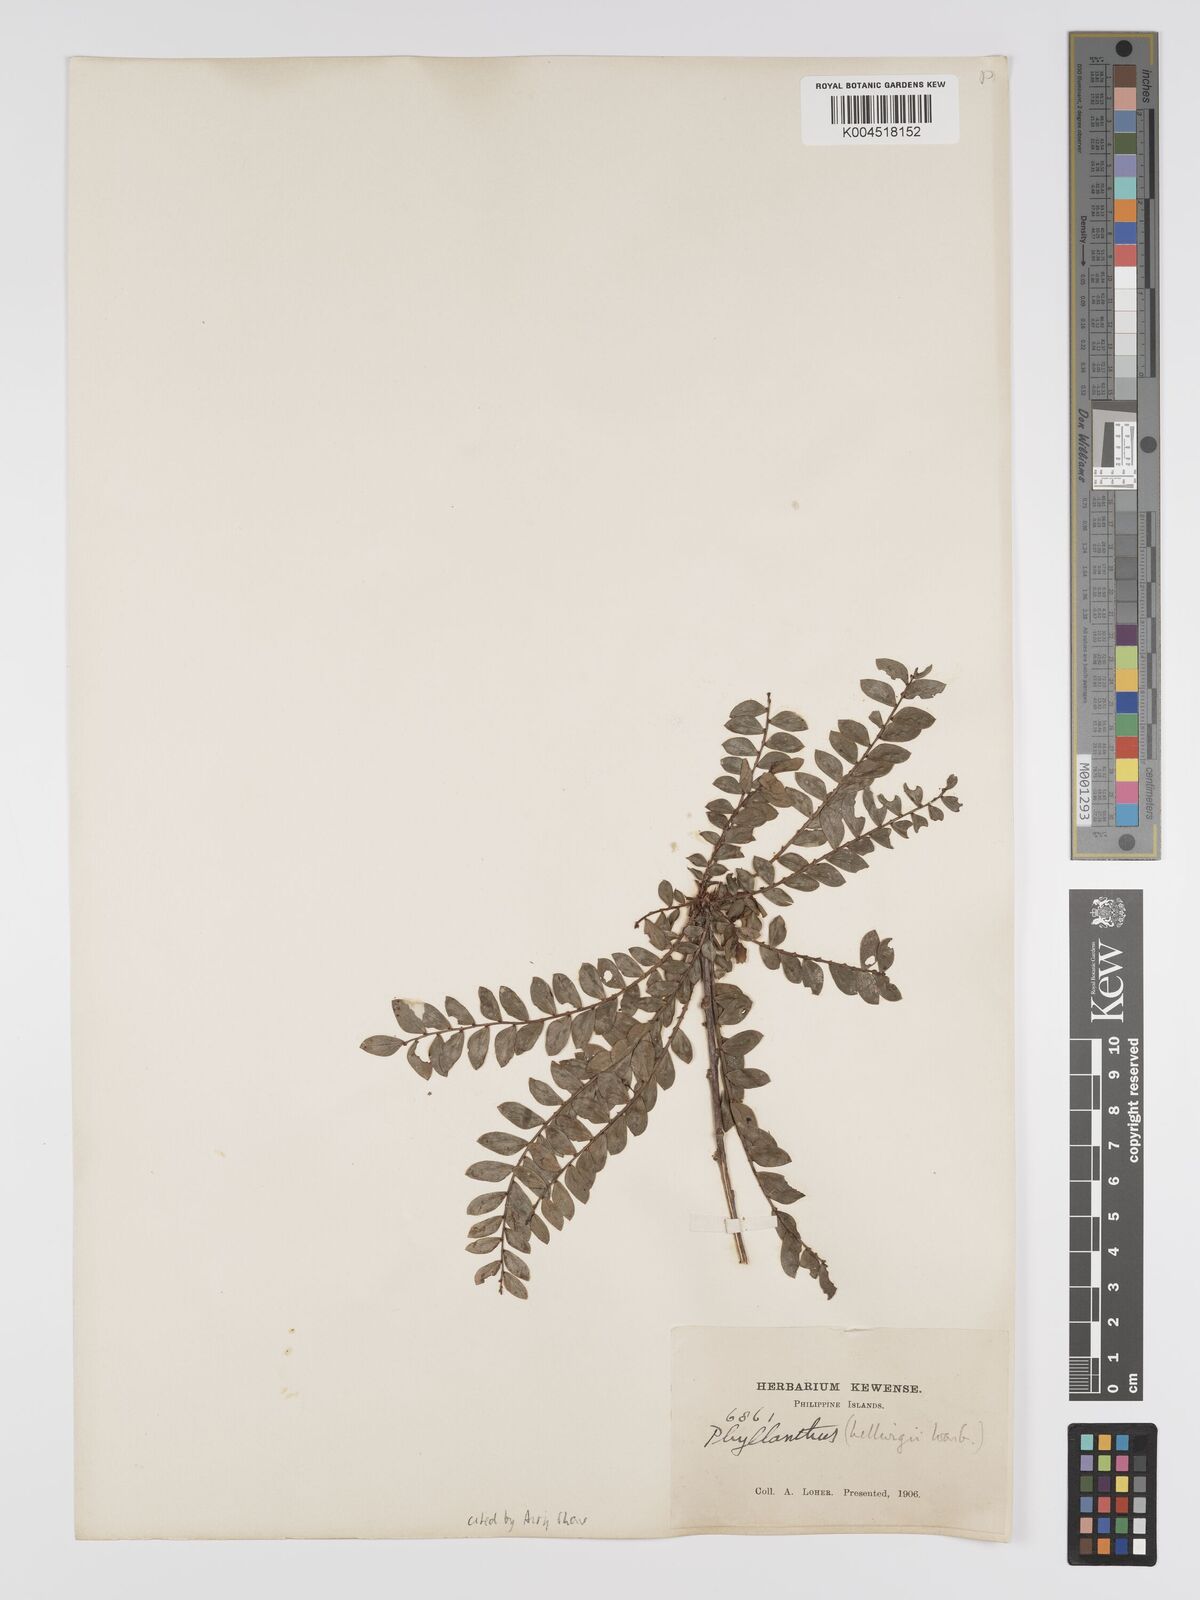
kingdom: Plantae
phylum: Tracheophyta
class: Magnoliopsida
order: Malpighiales
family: Phyllanthaceae
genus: Glochidion
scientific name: Glochidion lamprophyllum
